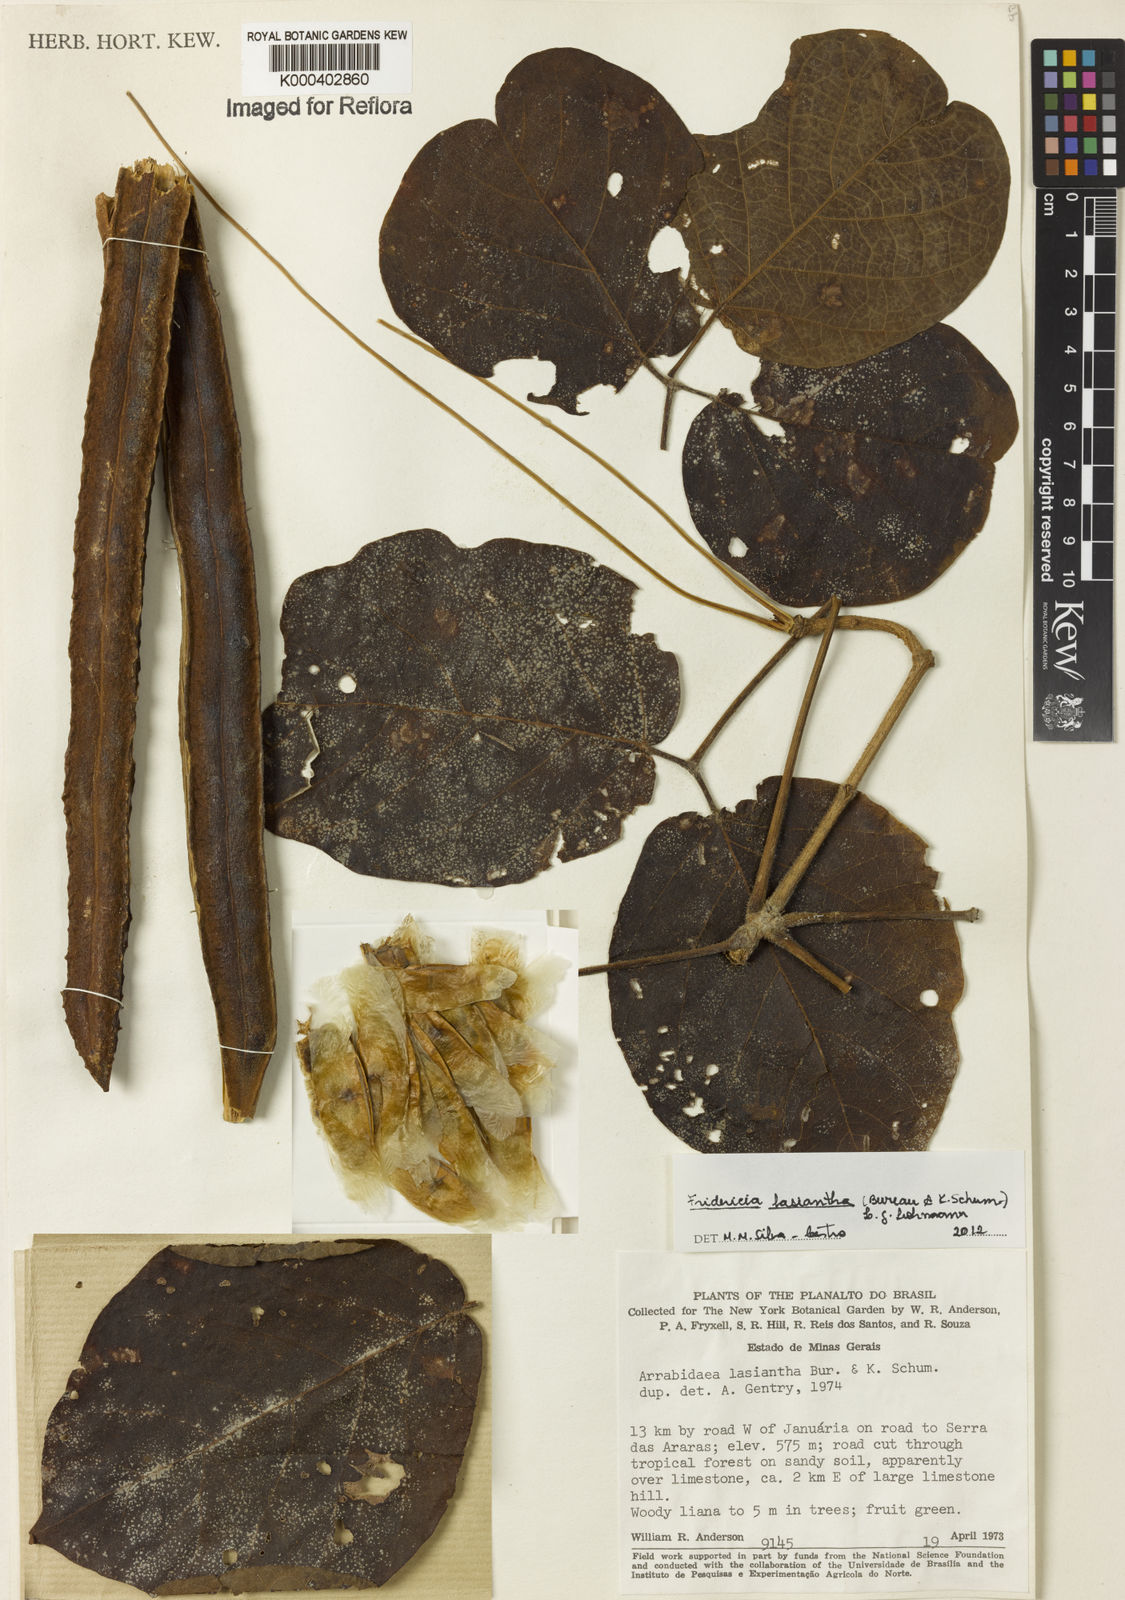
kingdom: Plantae
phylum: Tracheophyta
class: Magnoliopsida
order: Lamiales
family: Bignoniaceae
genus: Fridericia
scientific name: Fridericia
